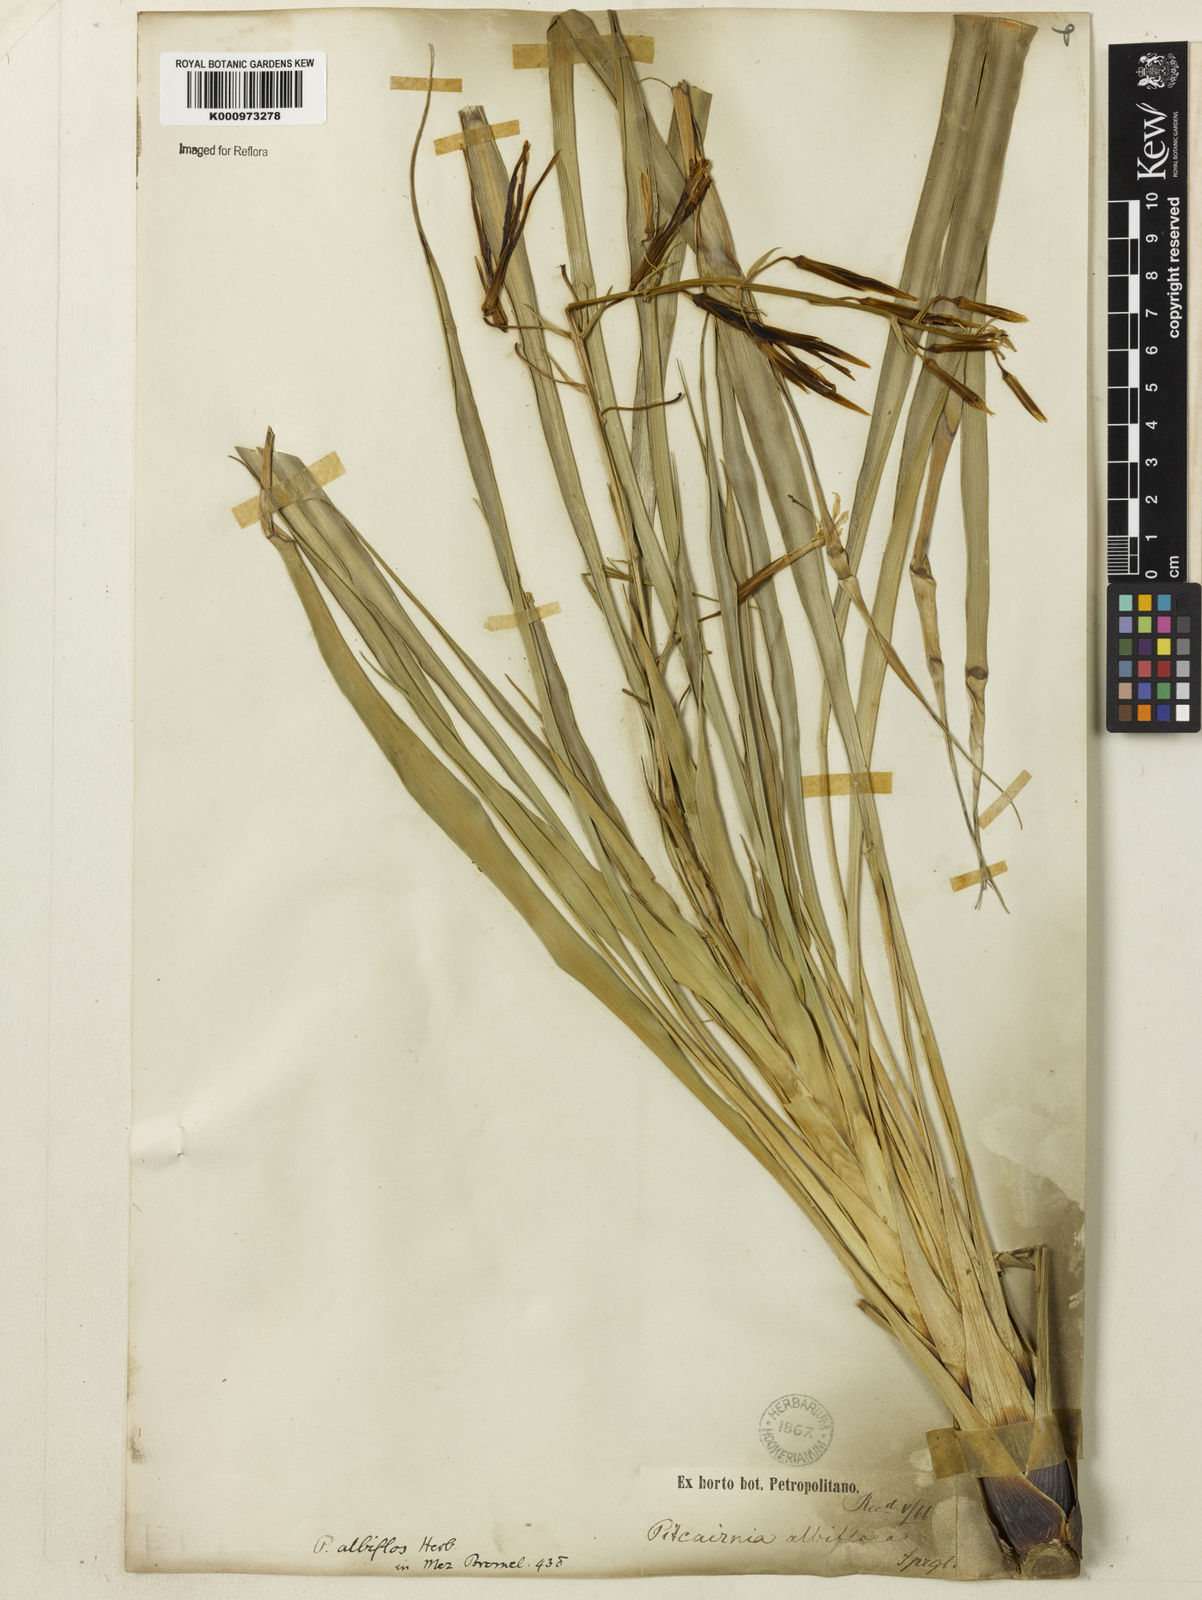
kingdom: Plantae
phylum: Tracheophyta
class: Liliopsida
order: Poales
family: Bromeliaceae
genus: Pitcairnia
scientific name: Pitcairnia albiflos
